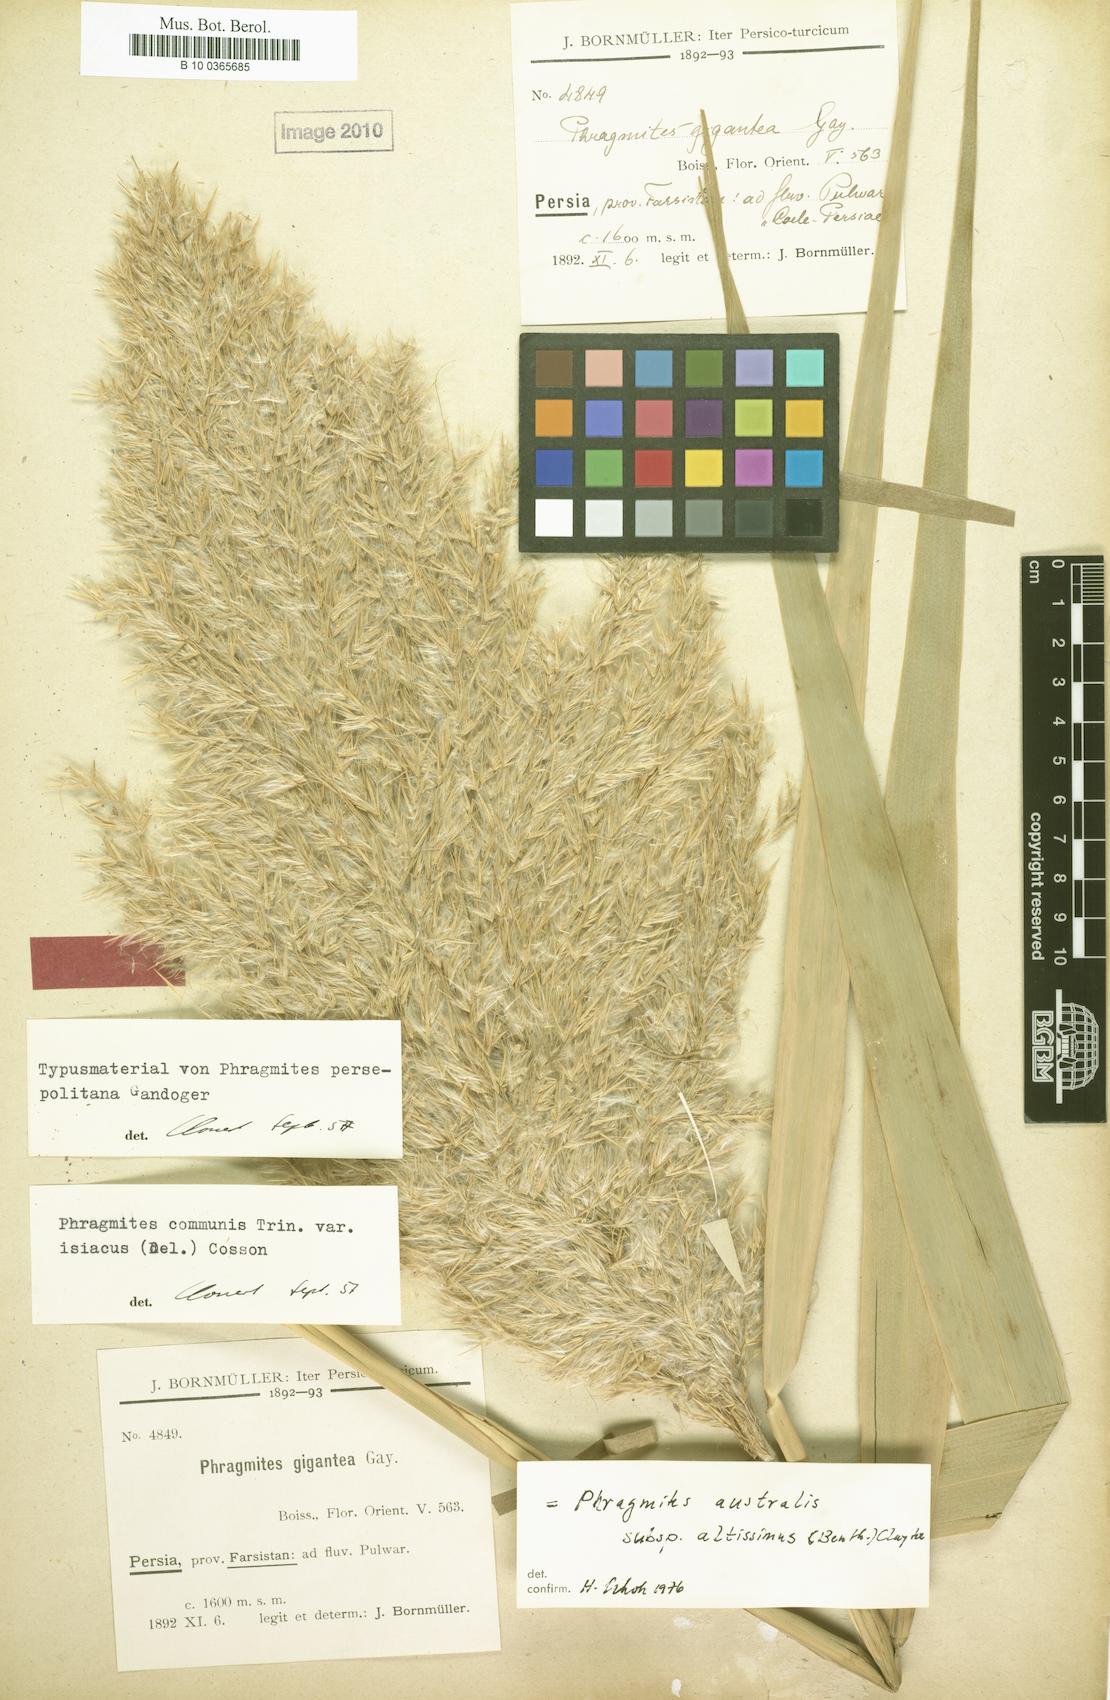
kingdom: Plantae
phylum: Tracheophyta
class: Liliopsida
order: Poales
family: Poaceae
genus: Phragmites
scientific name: Phragmites australis
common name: Common reed
